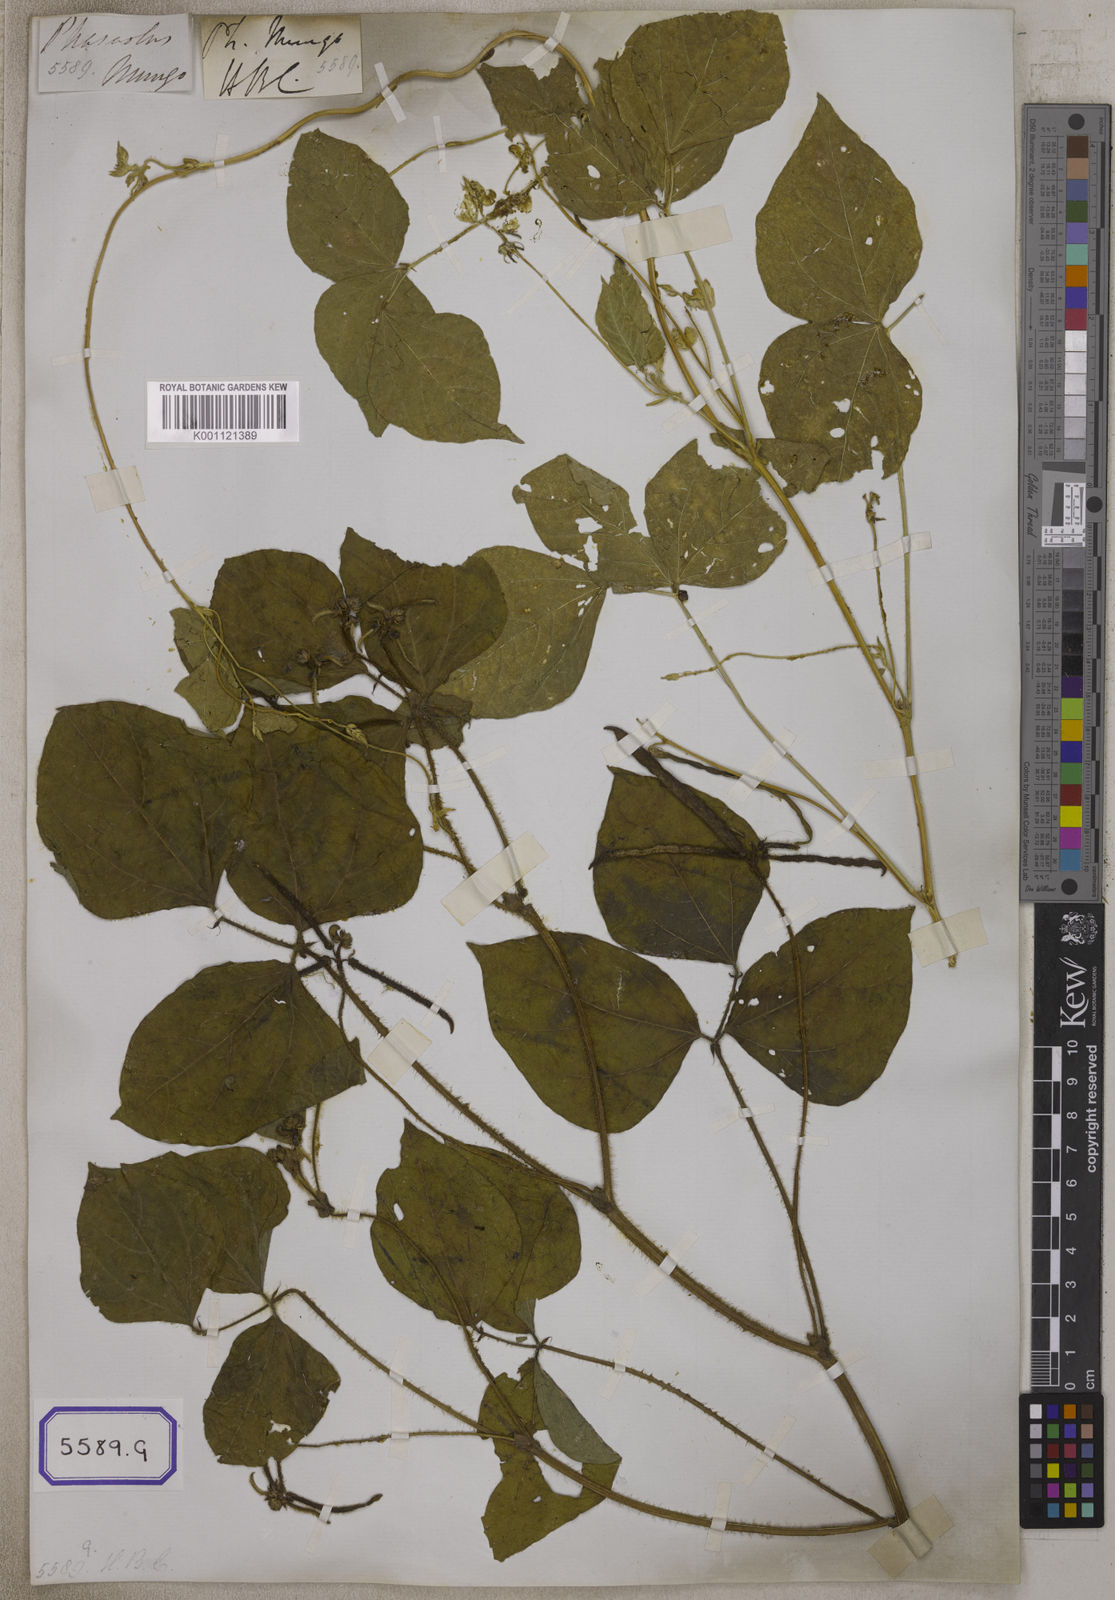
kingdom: Plantae
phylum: Tracheophyta
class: Magnoliopsida
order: Fabales
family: Fabaceae
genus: Phaseolus
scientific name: Phaseolus
